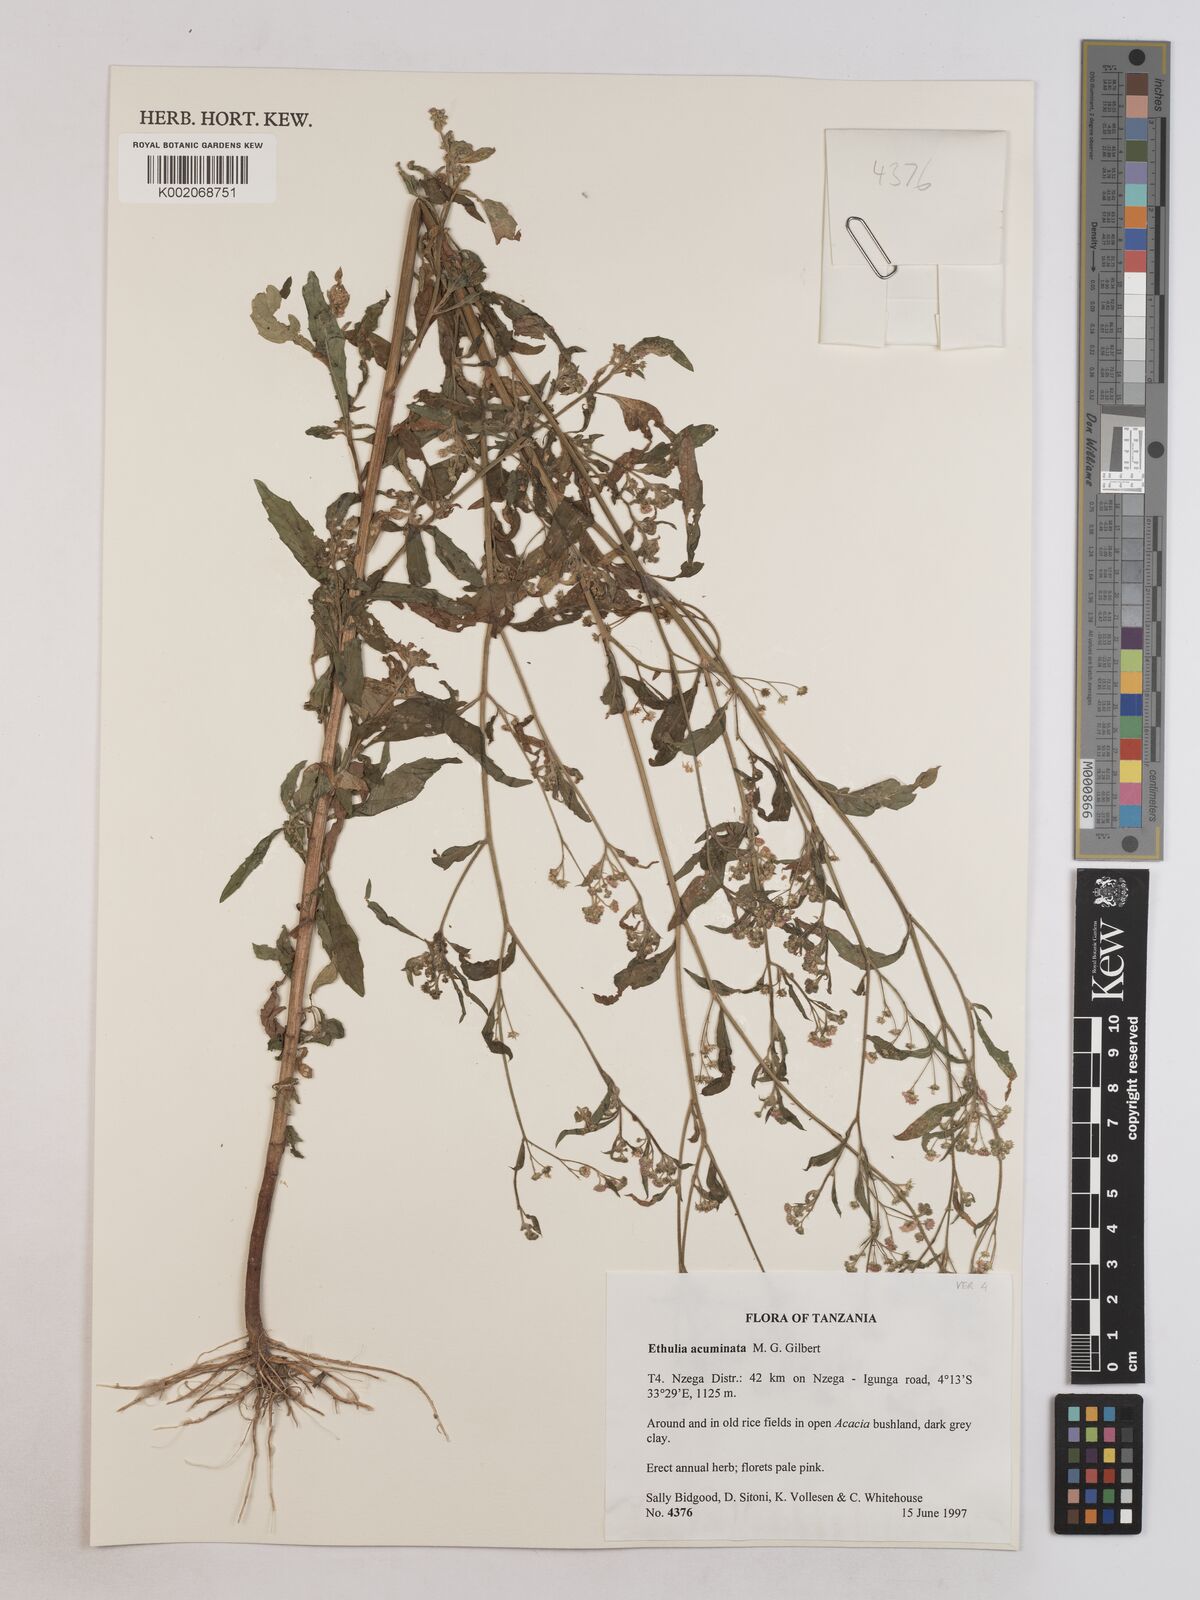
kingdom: Plantae
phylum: Tracheophyta
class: Magnoliopsida
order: Asterales
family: Asteraceae
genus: Ethulia
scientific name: Ethulia acuminata
